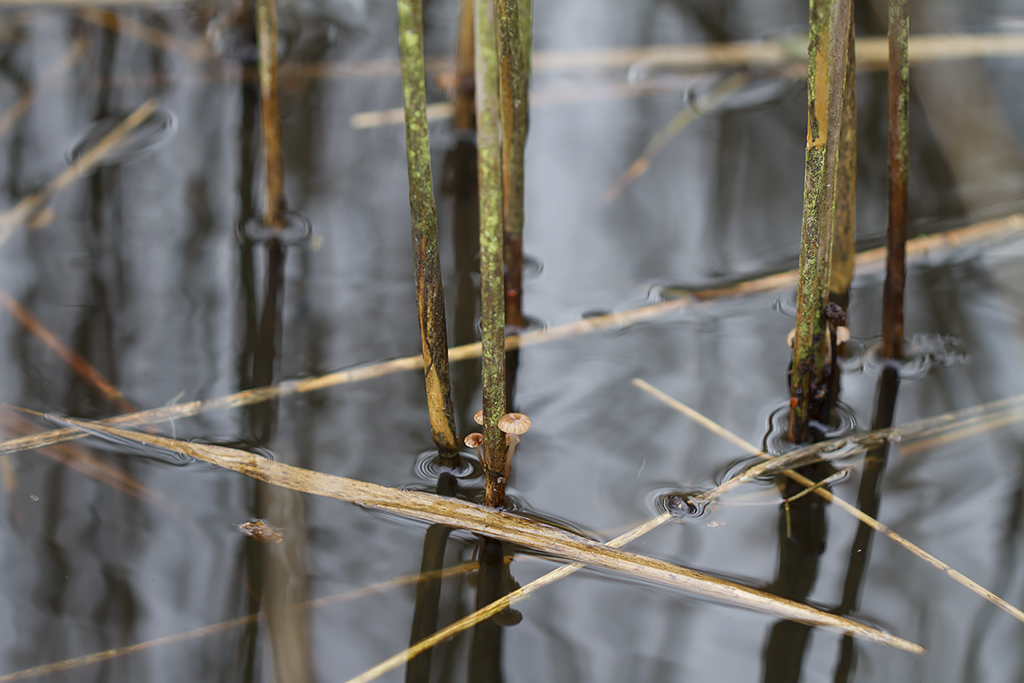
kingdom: Fungi
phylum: Basidiomycota
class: Agaricomycetes
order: Agaricales
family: Mycenaceae
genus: Mycena
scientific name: Mycena belliae
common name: tagrørs-huesvamp
